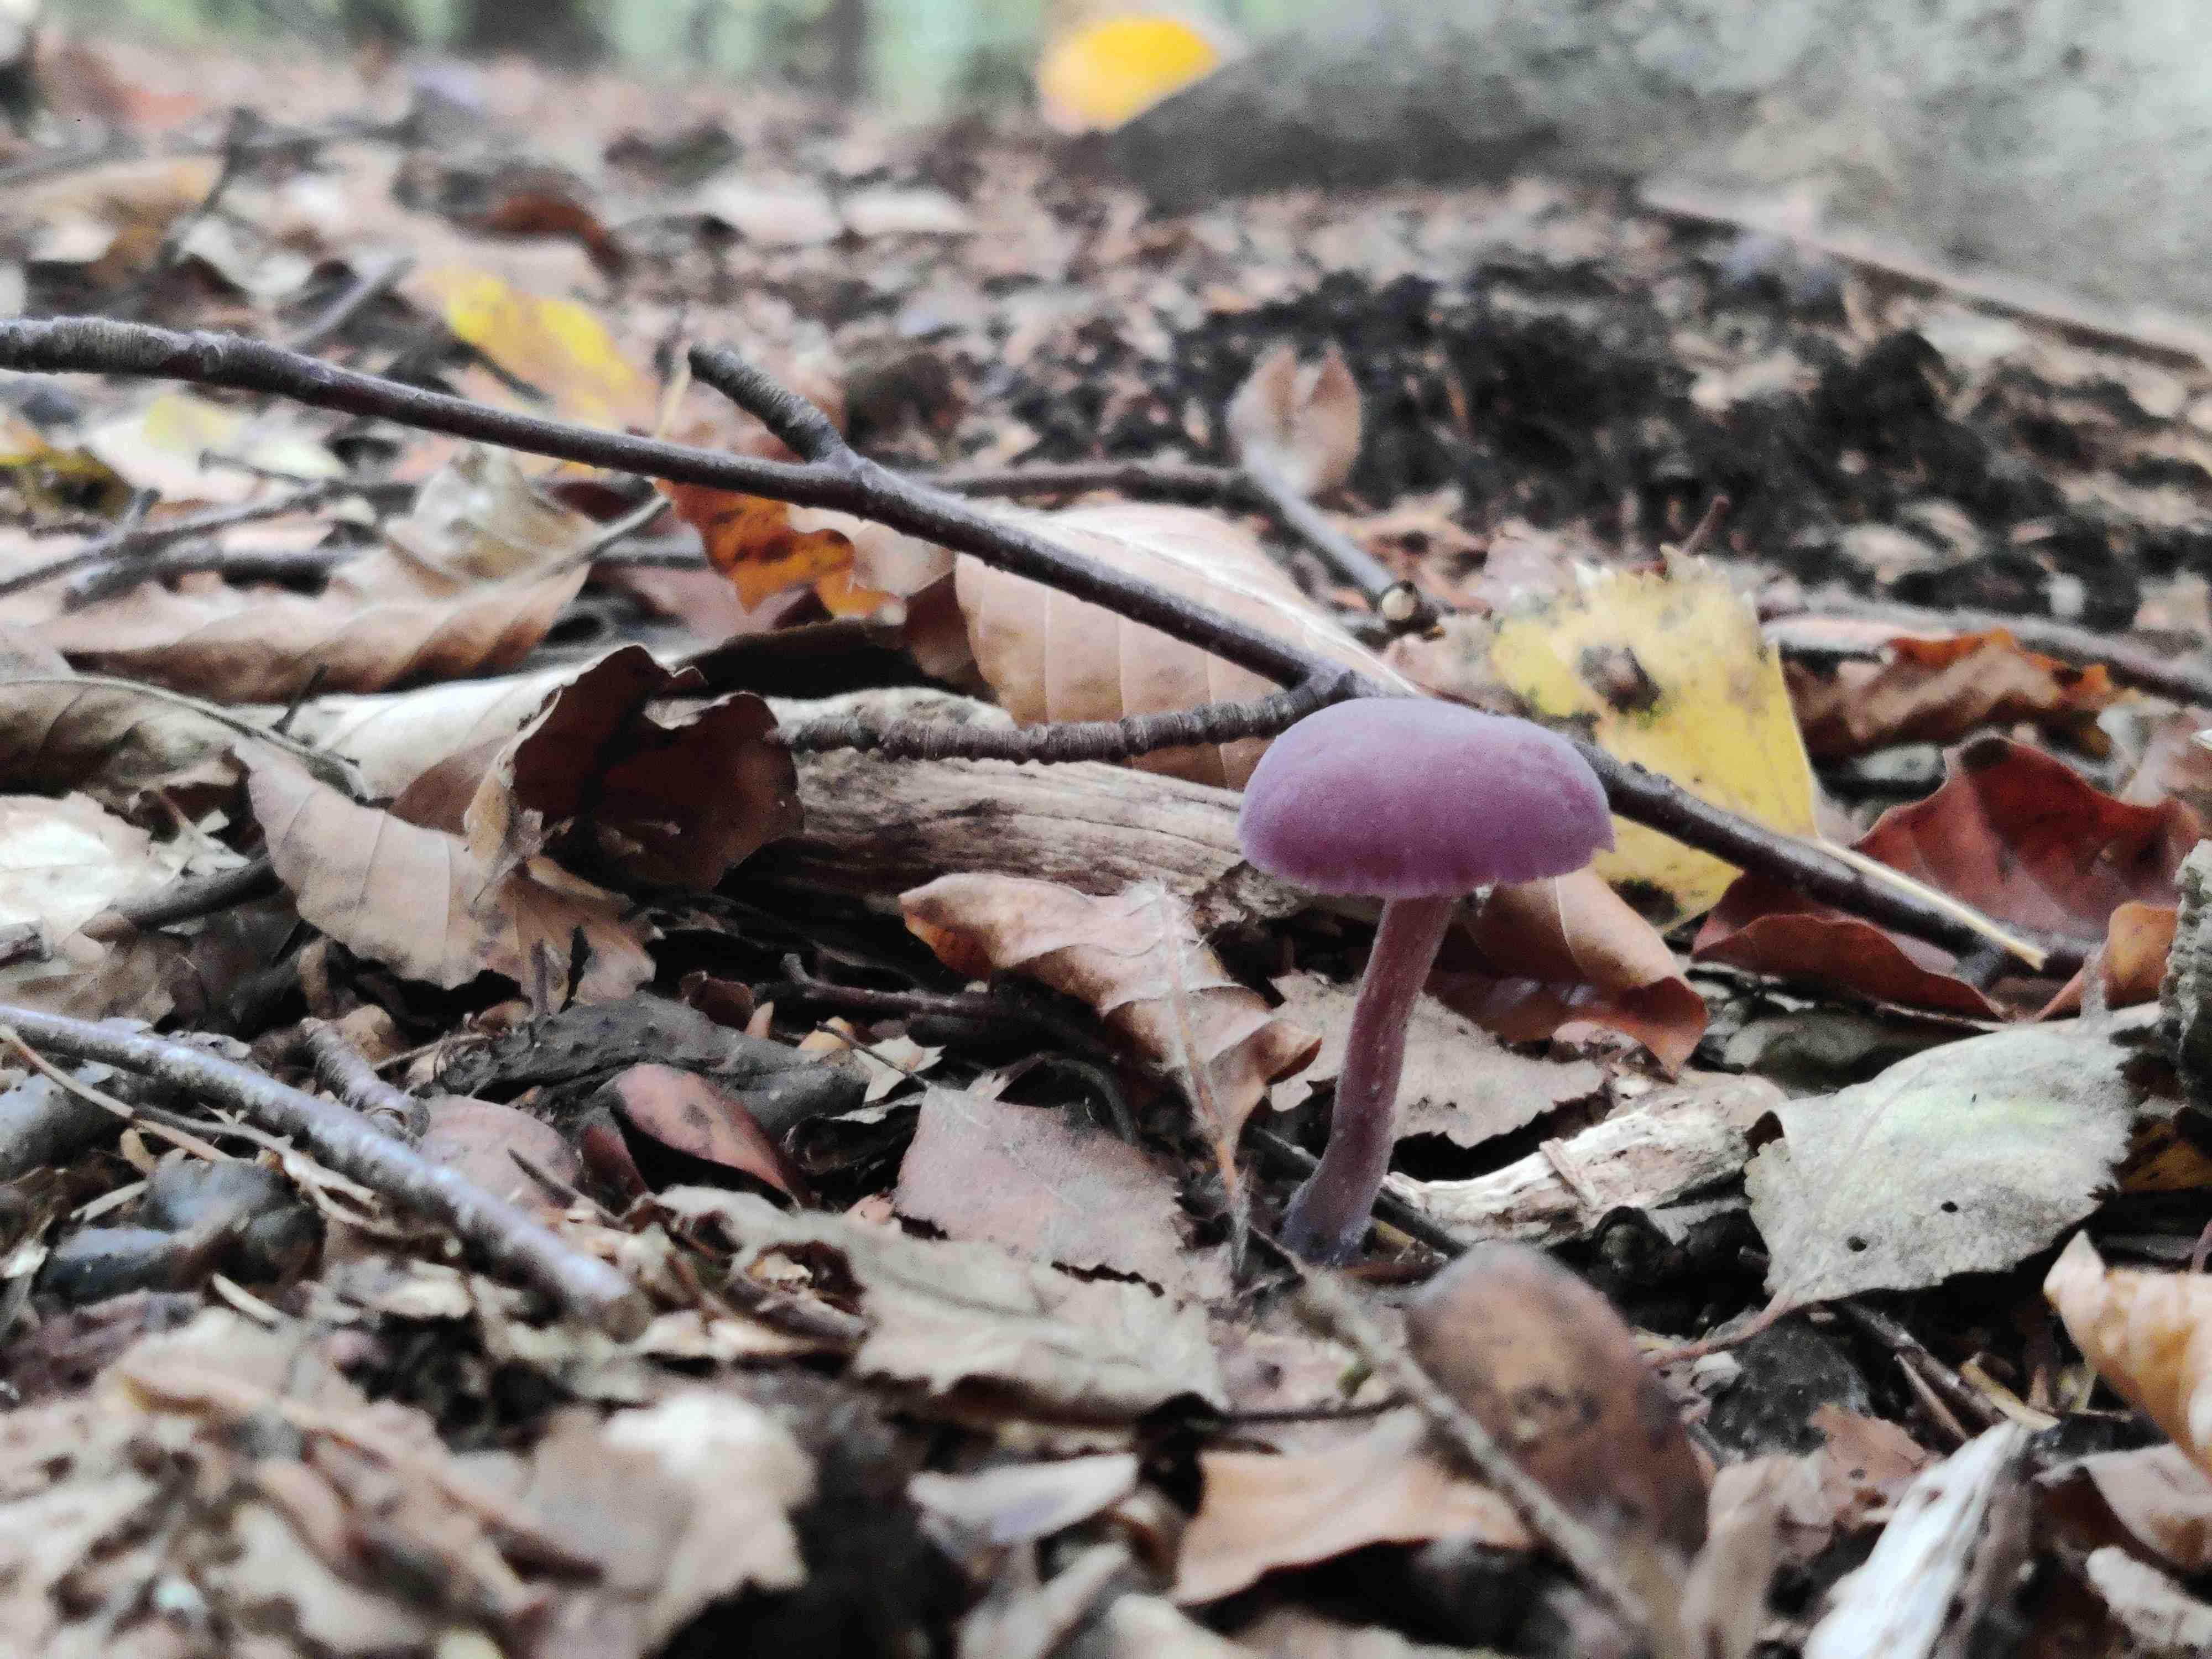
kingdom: Fungi
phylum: Basidiomycota
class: Agaricomycetes
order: Agaricales
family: Hydnangiaceae
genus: Laccaria
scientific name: Laccaria amethystina
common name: violet ametysthat
